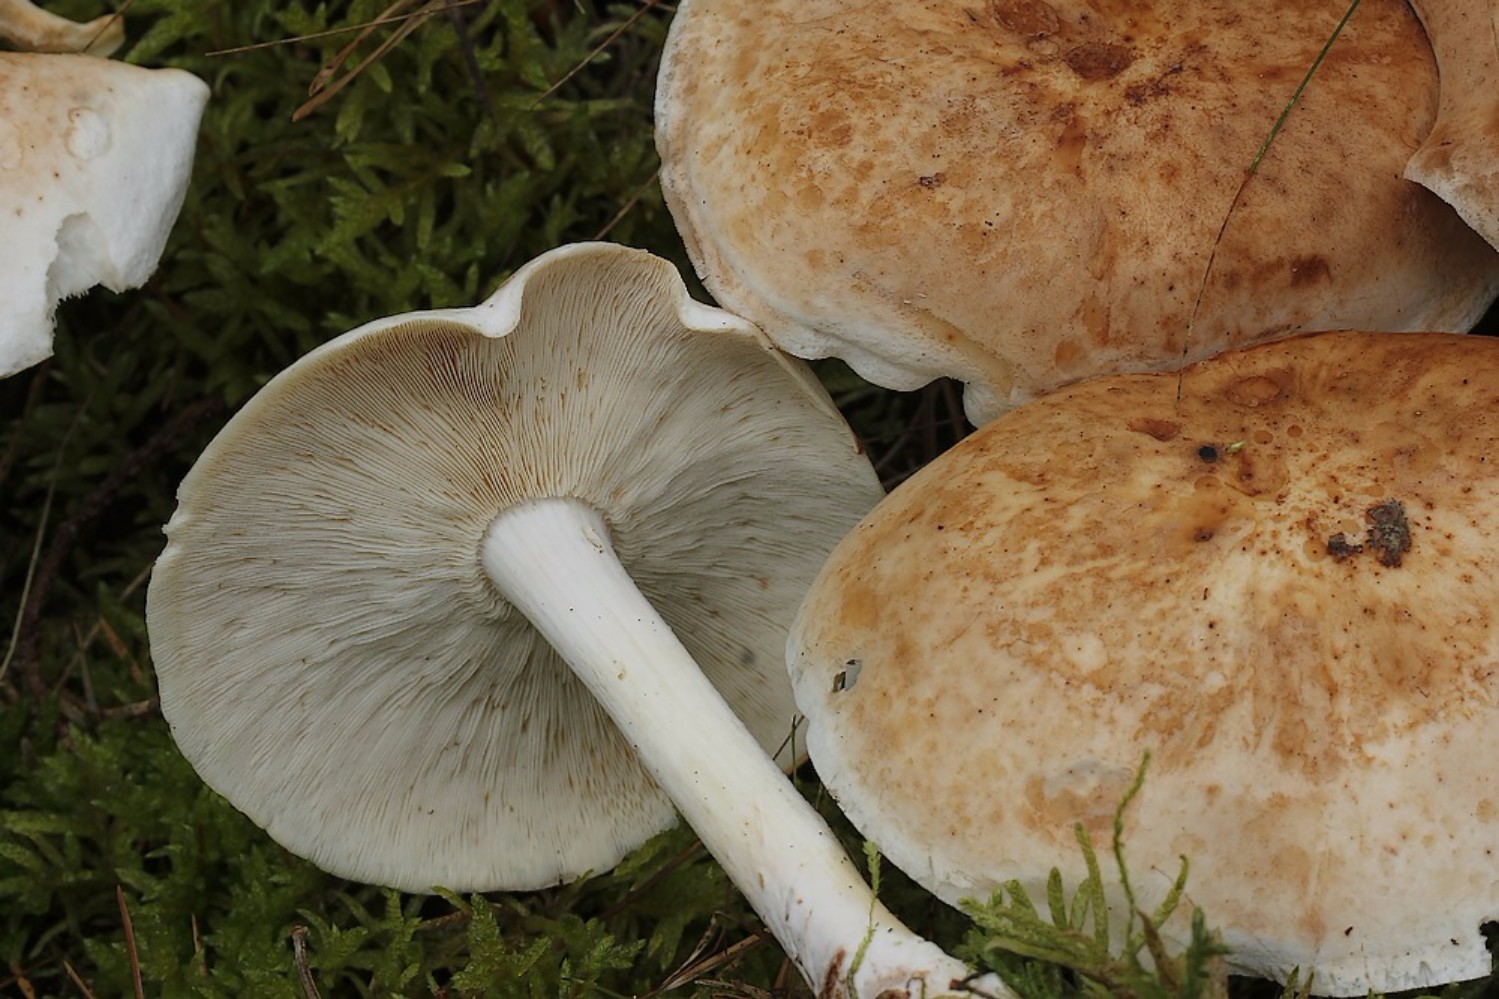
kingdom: Fungi
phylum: Basidiomycota
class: Agaricomycetes
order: Agaricales
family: Omphalotaceae
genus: Rhodocollybia
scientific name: Rhodocollybia maculata
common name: plettet fladhat
